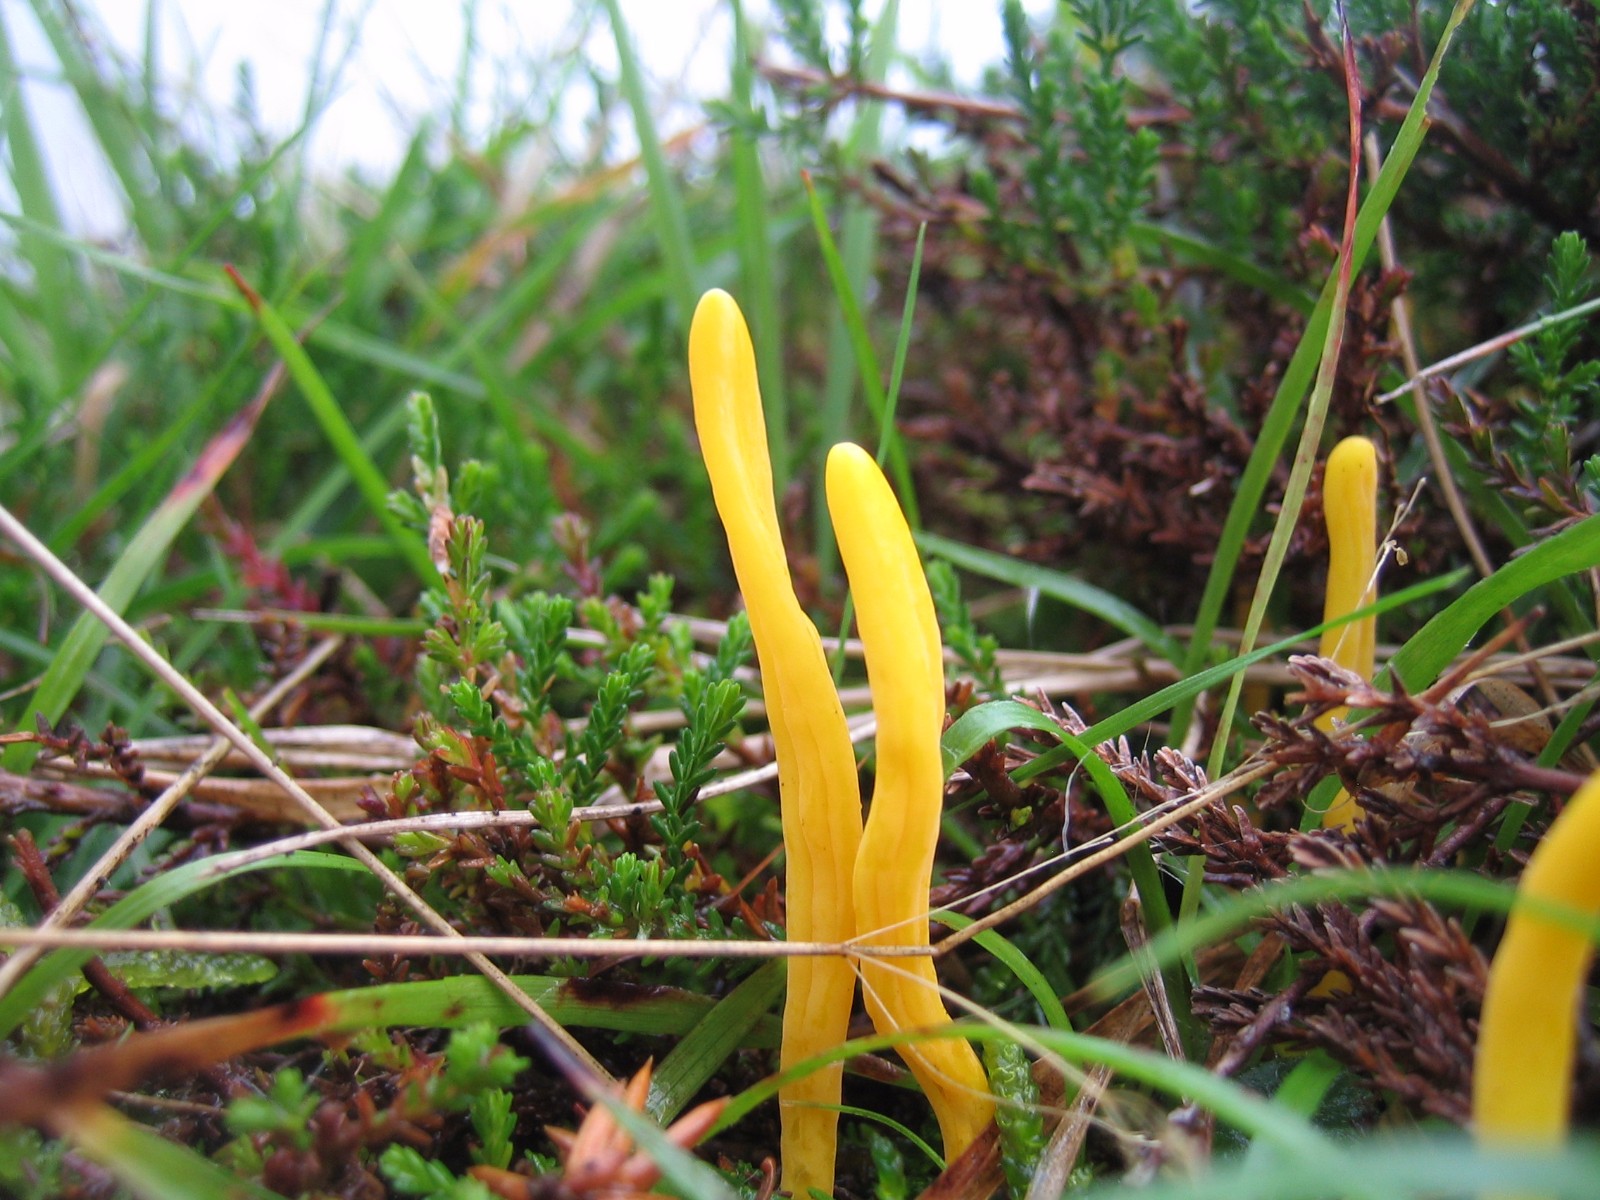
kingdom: Fungi
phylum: Basidiomycota
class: Agaricomycetes
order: Agaricales
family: Clavariaceae
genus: Clavulinopsis
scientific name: Clavulinopsis
